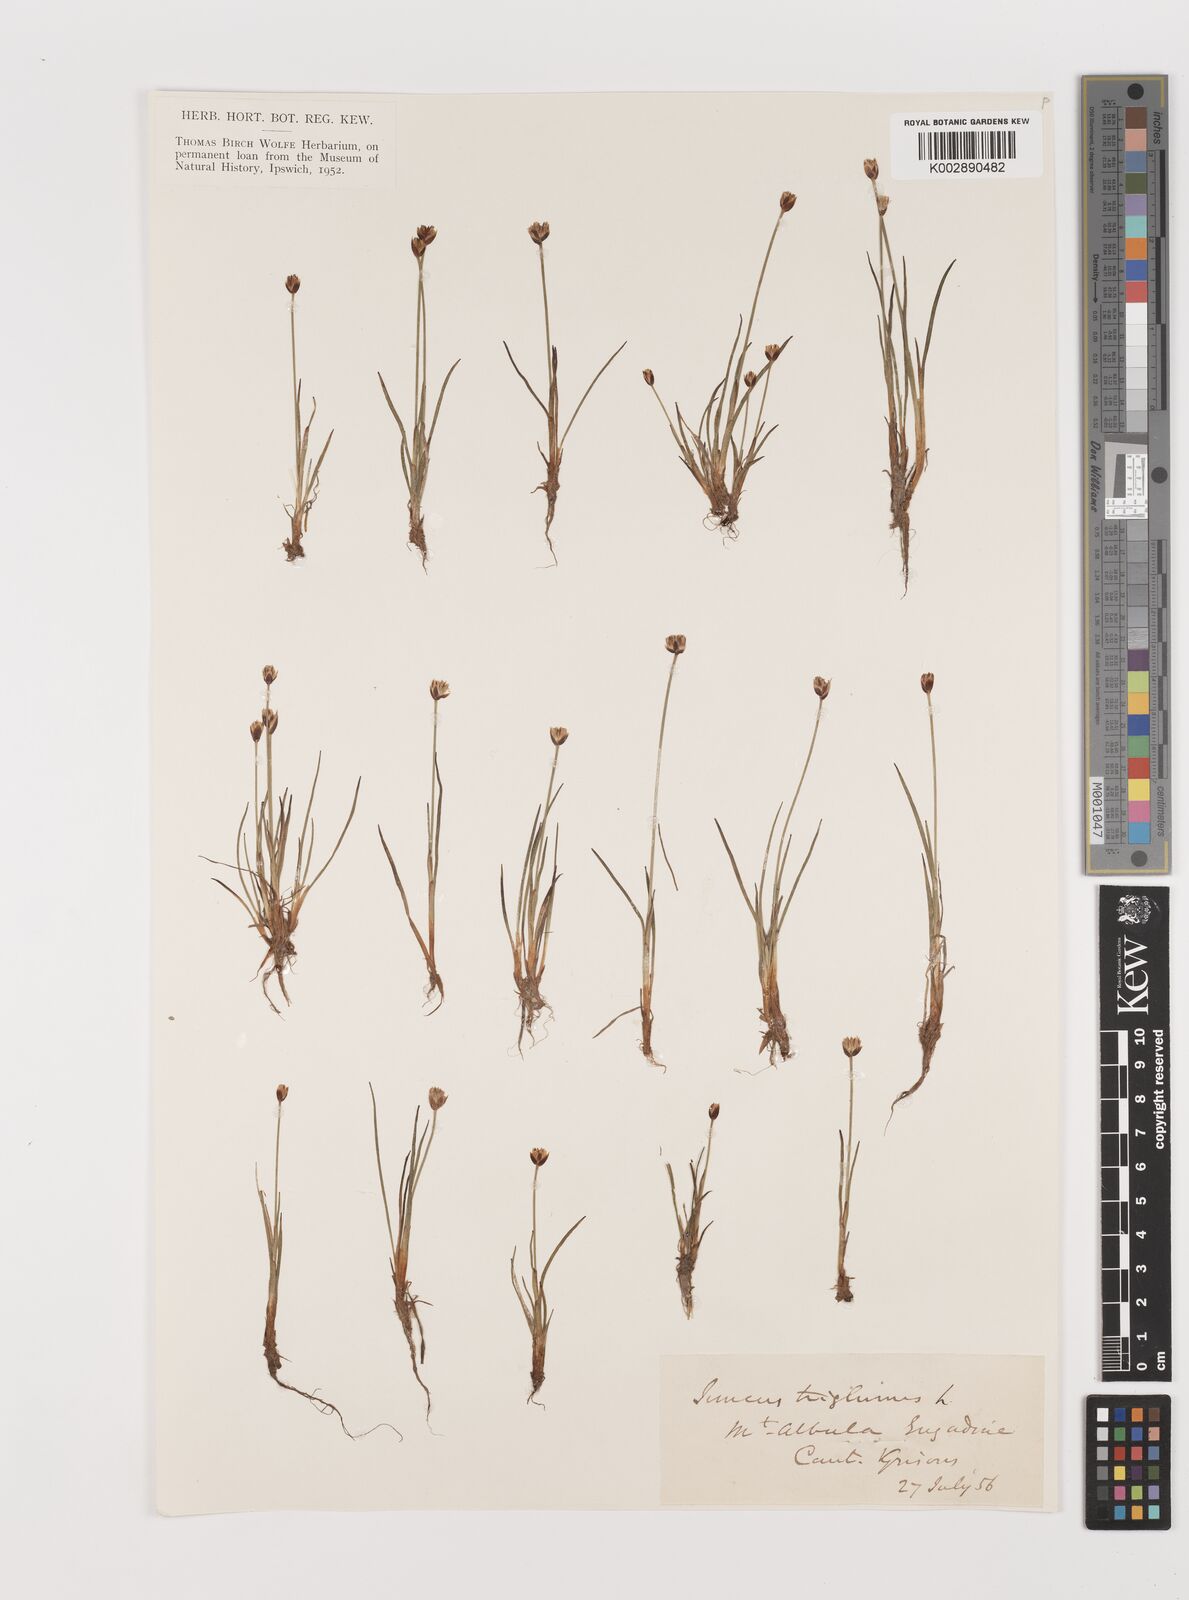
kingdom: Plantae
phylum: Tracheophyta
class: Liliopsida
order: Poales
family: Juncaceae
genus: Juncus
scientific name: Juncus triglumis
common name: Three-flowered rush
